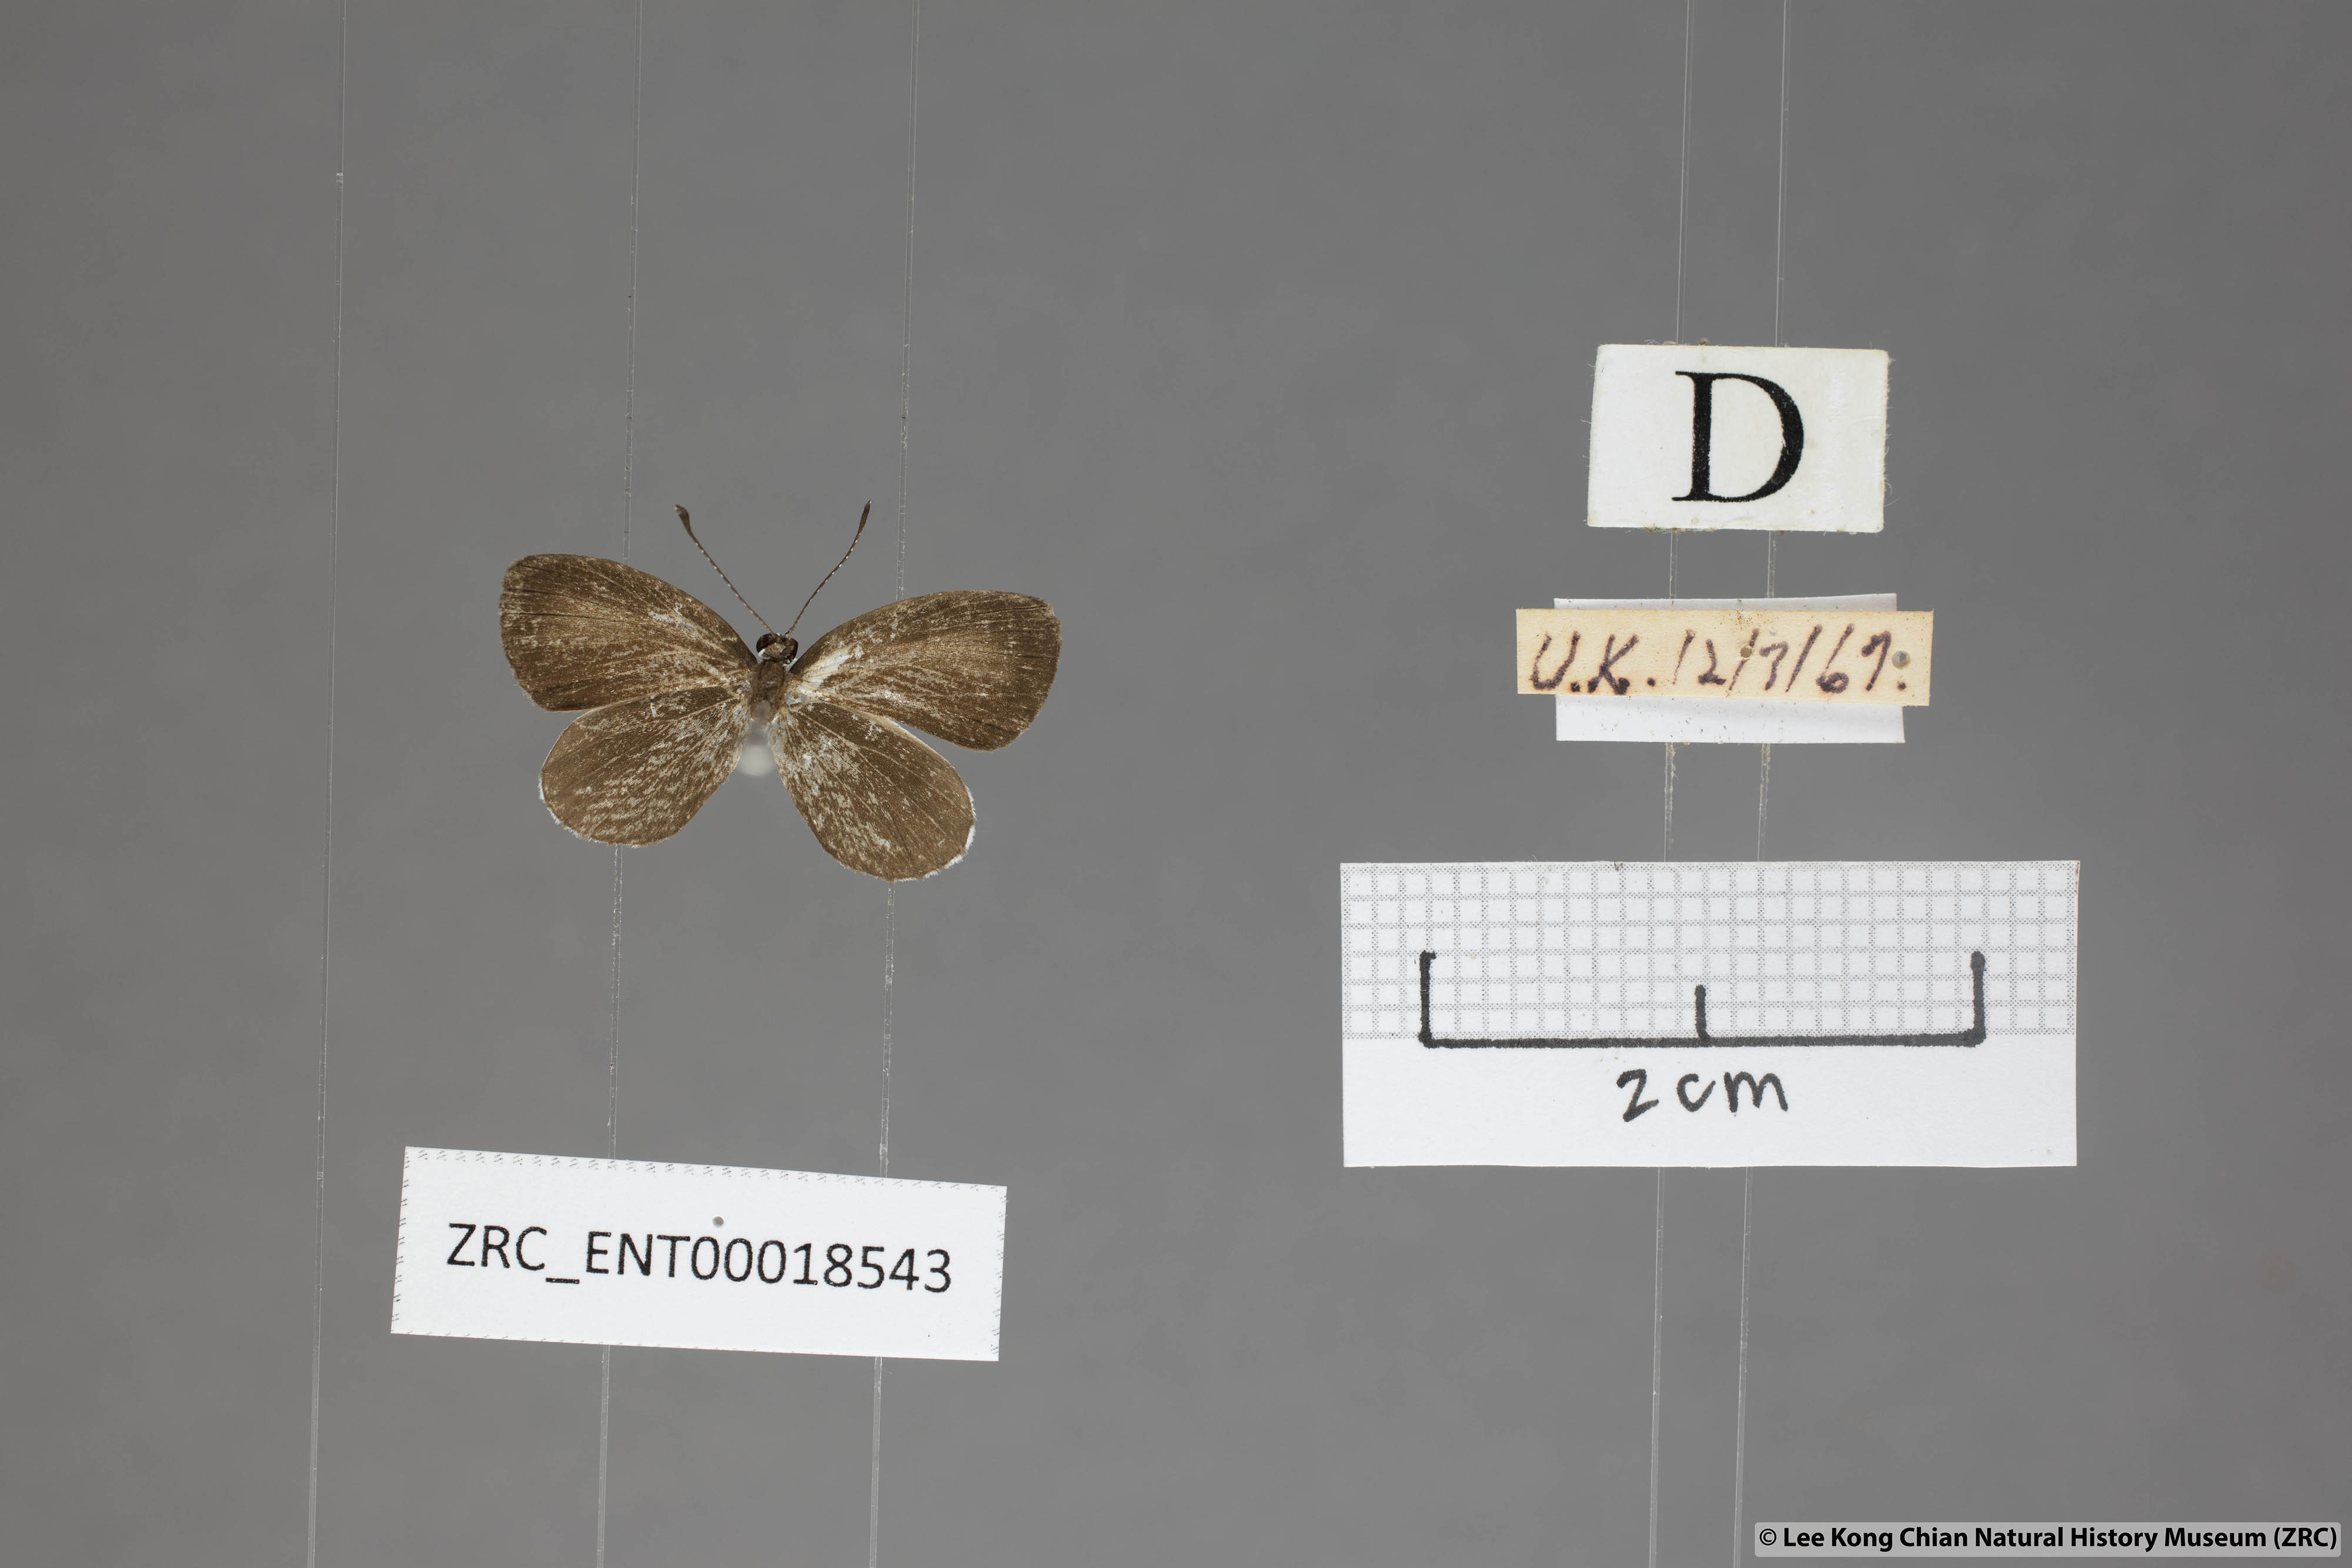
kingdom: Animalia
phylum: Arthropoda
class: Insecta
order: Lepidoptera
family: Lycaenidae
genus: Pithecops
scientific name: Pithecops corvus
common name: Forest quaker
